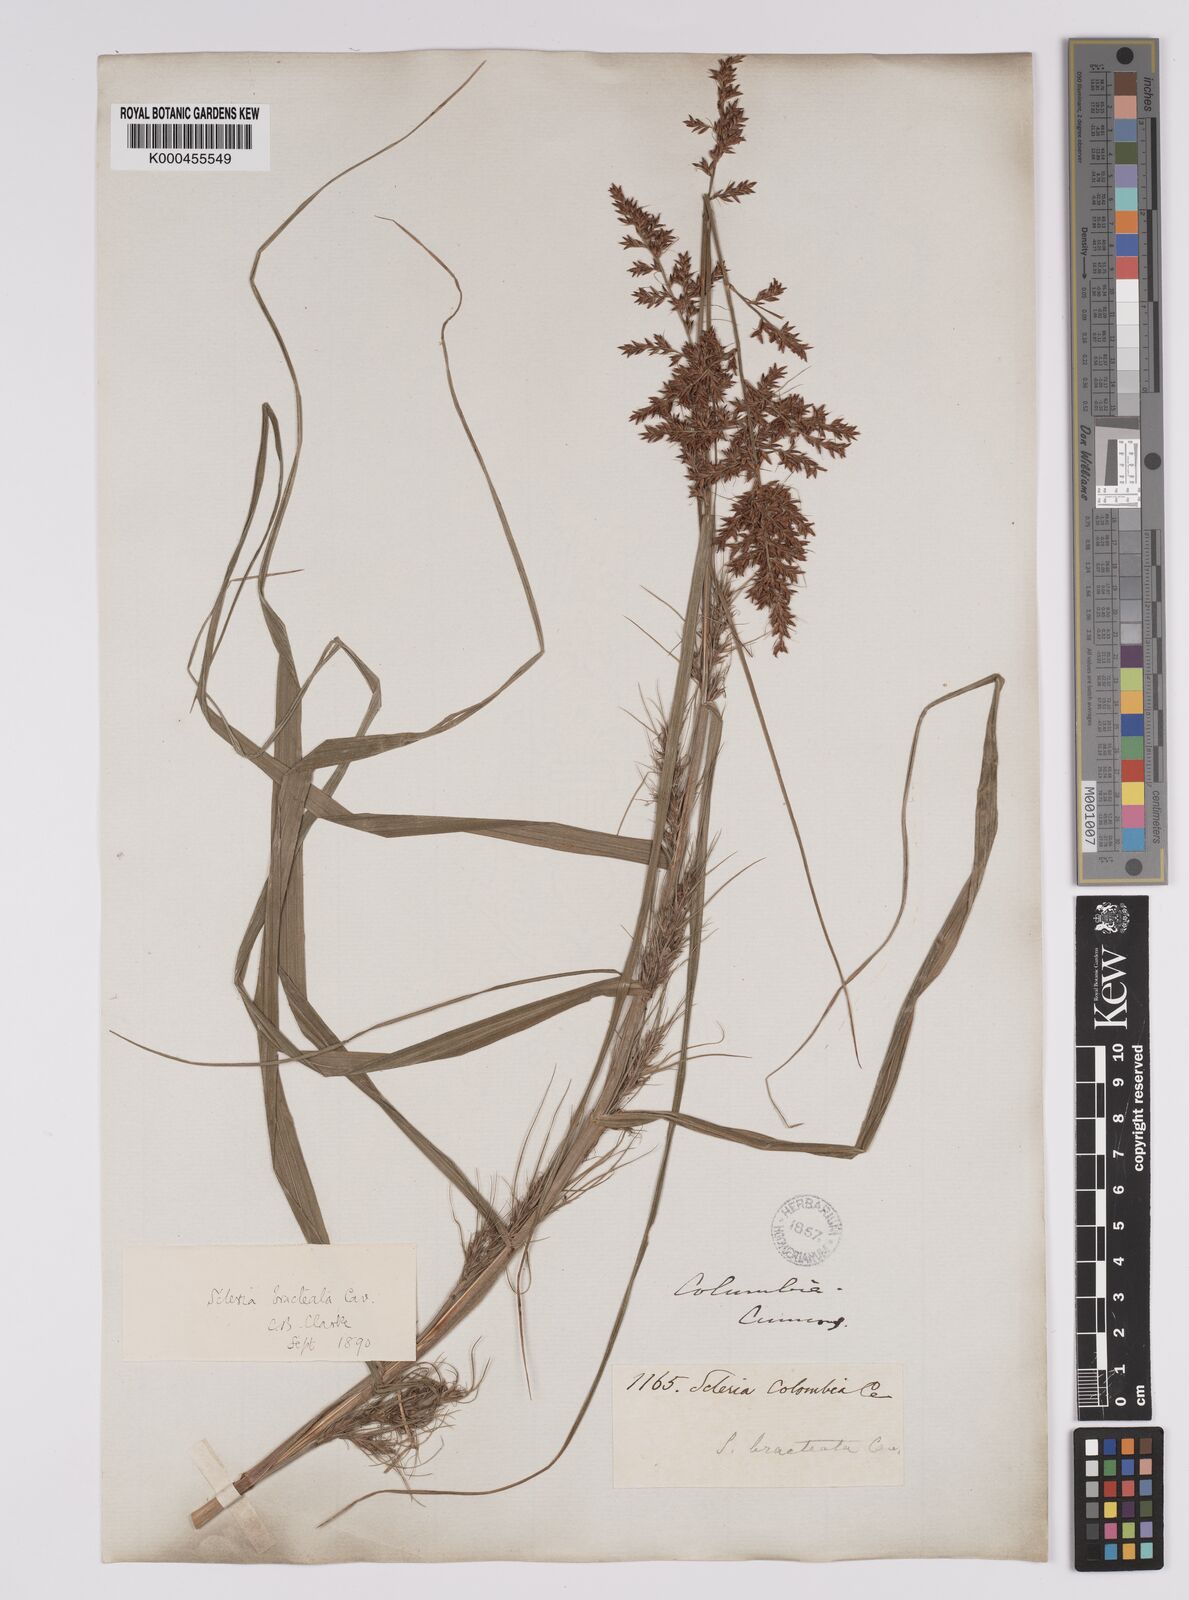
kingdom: Plantae
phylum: Tracheophyta
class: Liliopsida
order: Poales
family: Cyperaceae
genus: Scleria
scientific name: Scleria bracteata
